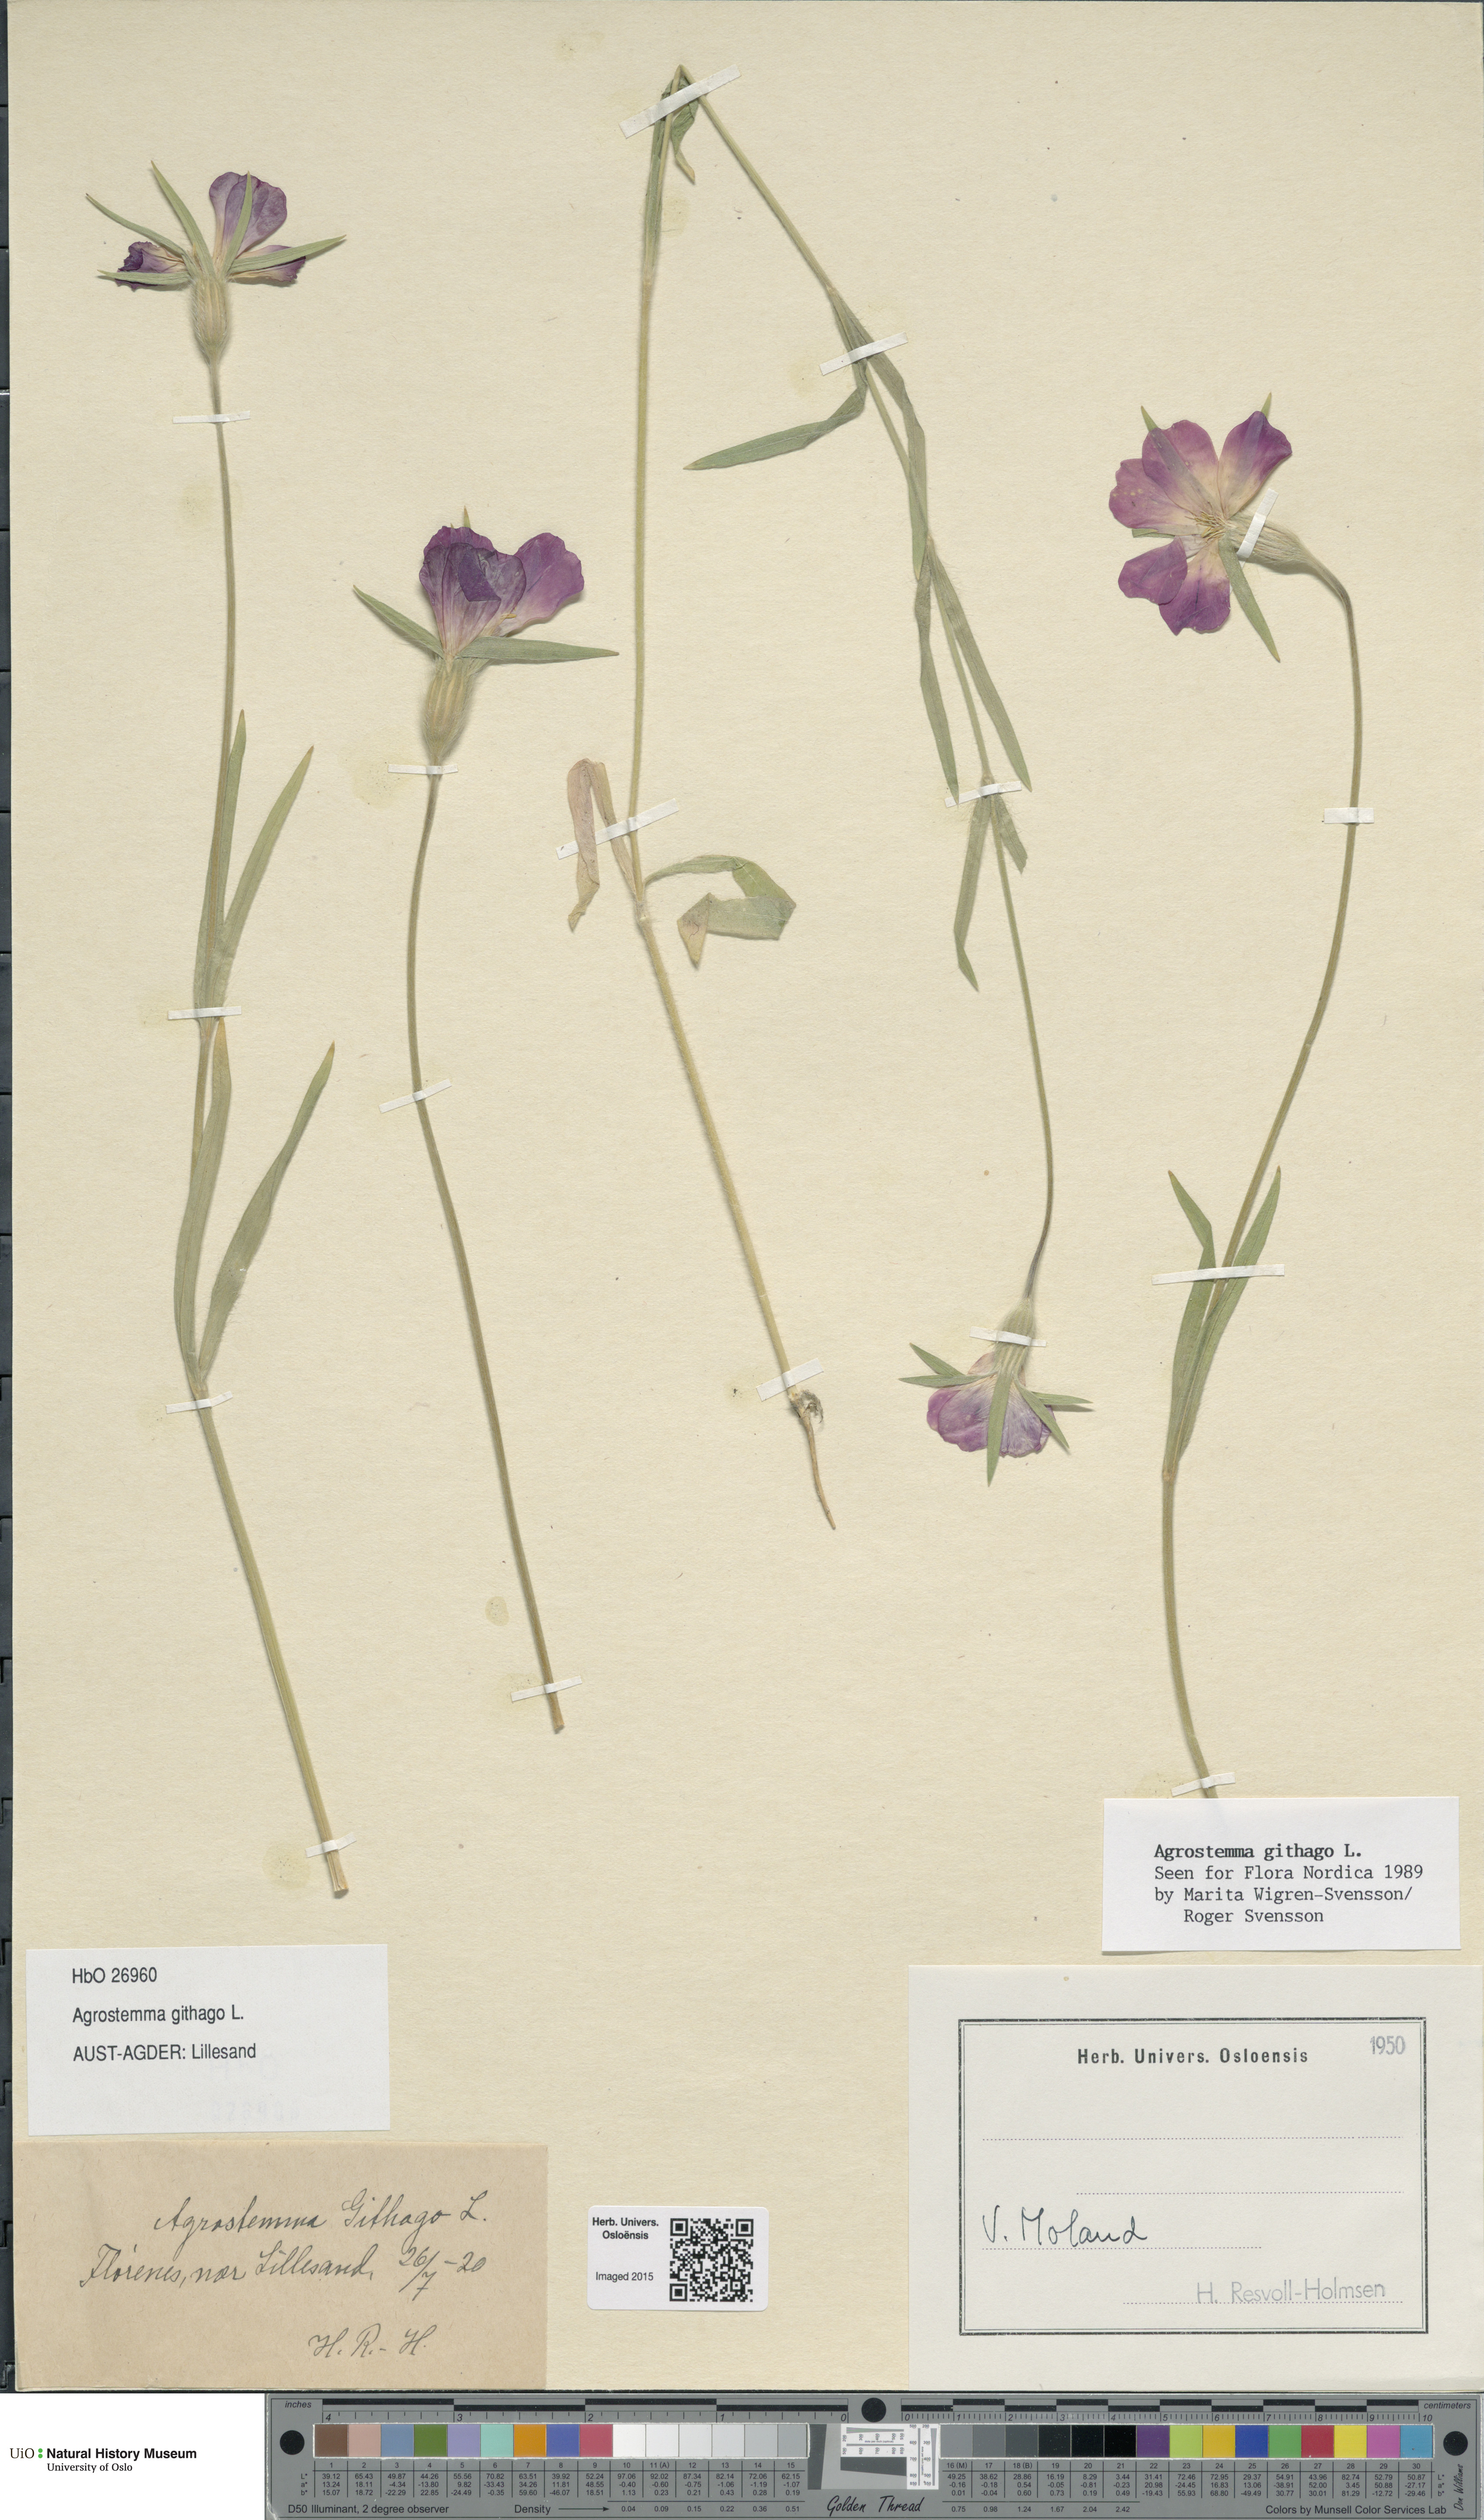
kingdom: Plantae
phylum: Tracheophyta
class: Magnoliopsida
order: Caryophyllales
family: Caryophyllaceae
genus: Agrostemma
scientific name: Agrostemma githago
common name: Common corncockle
